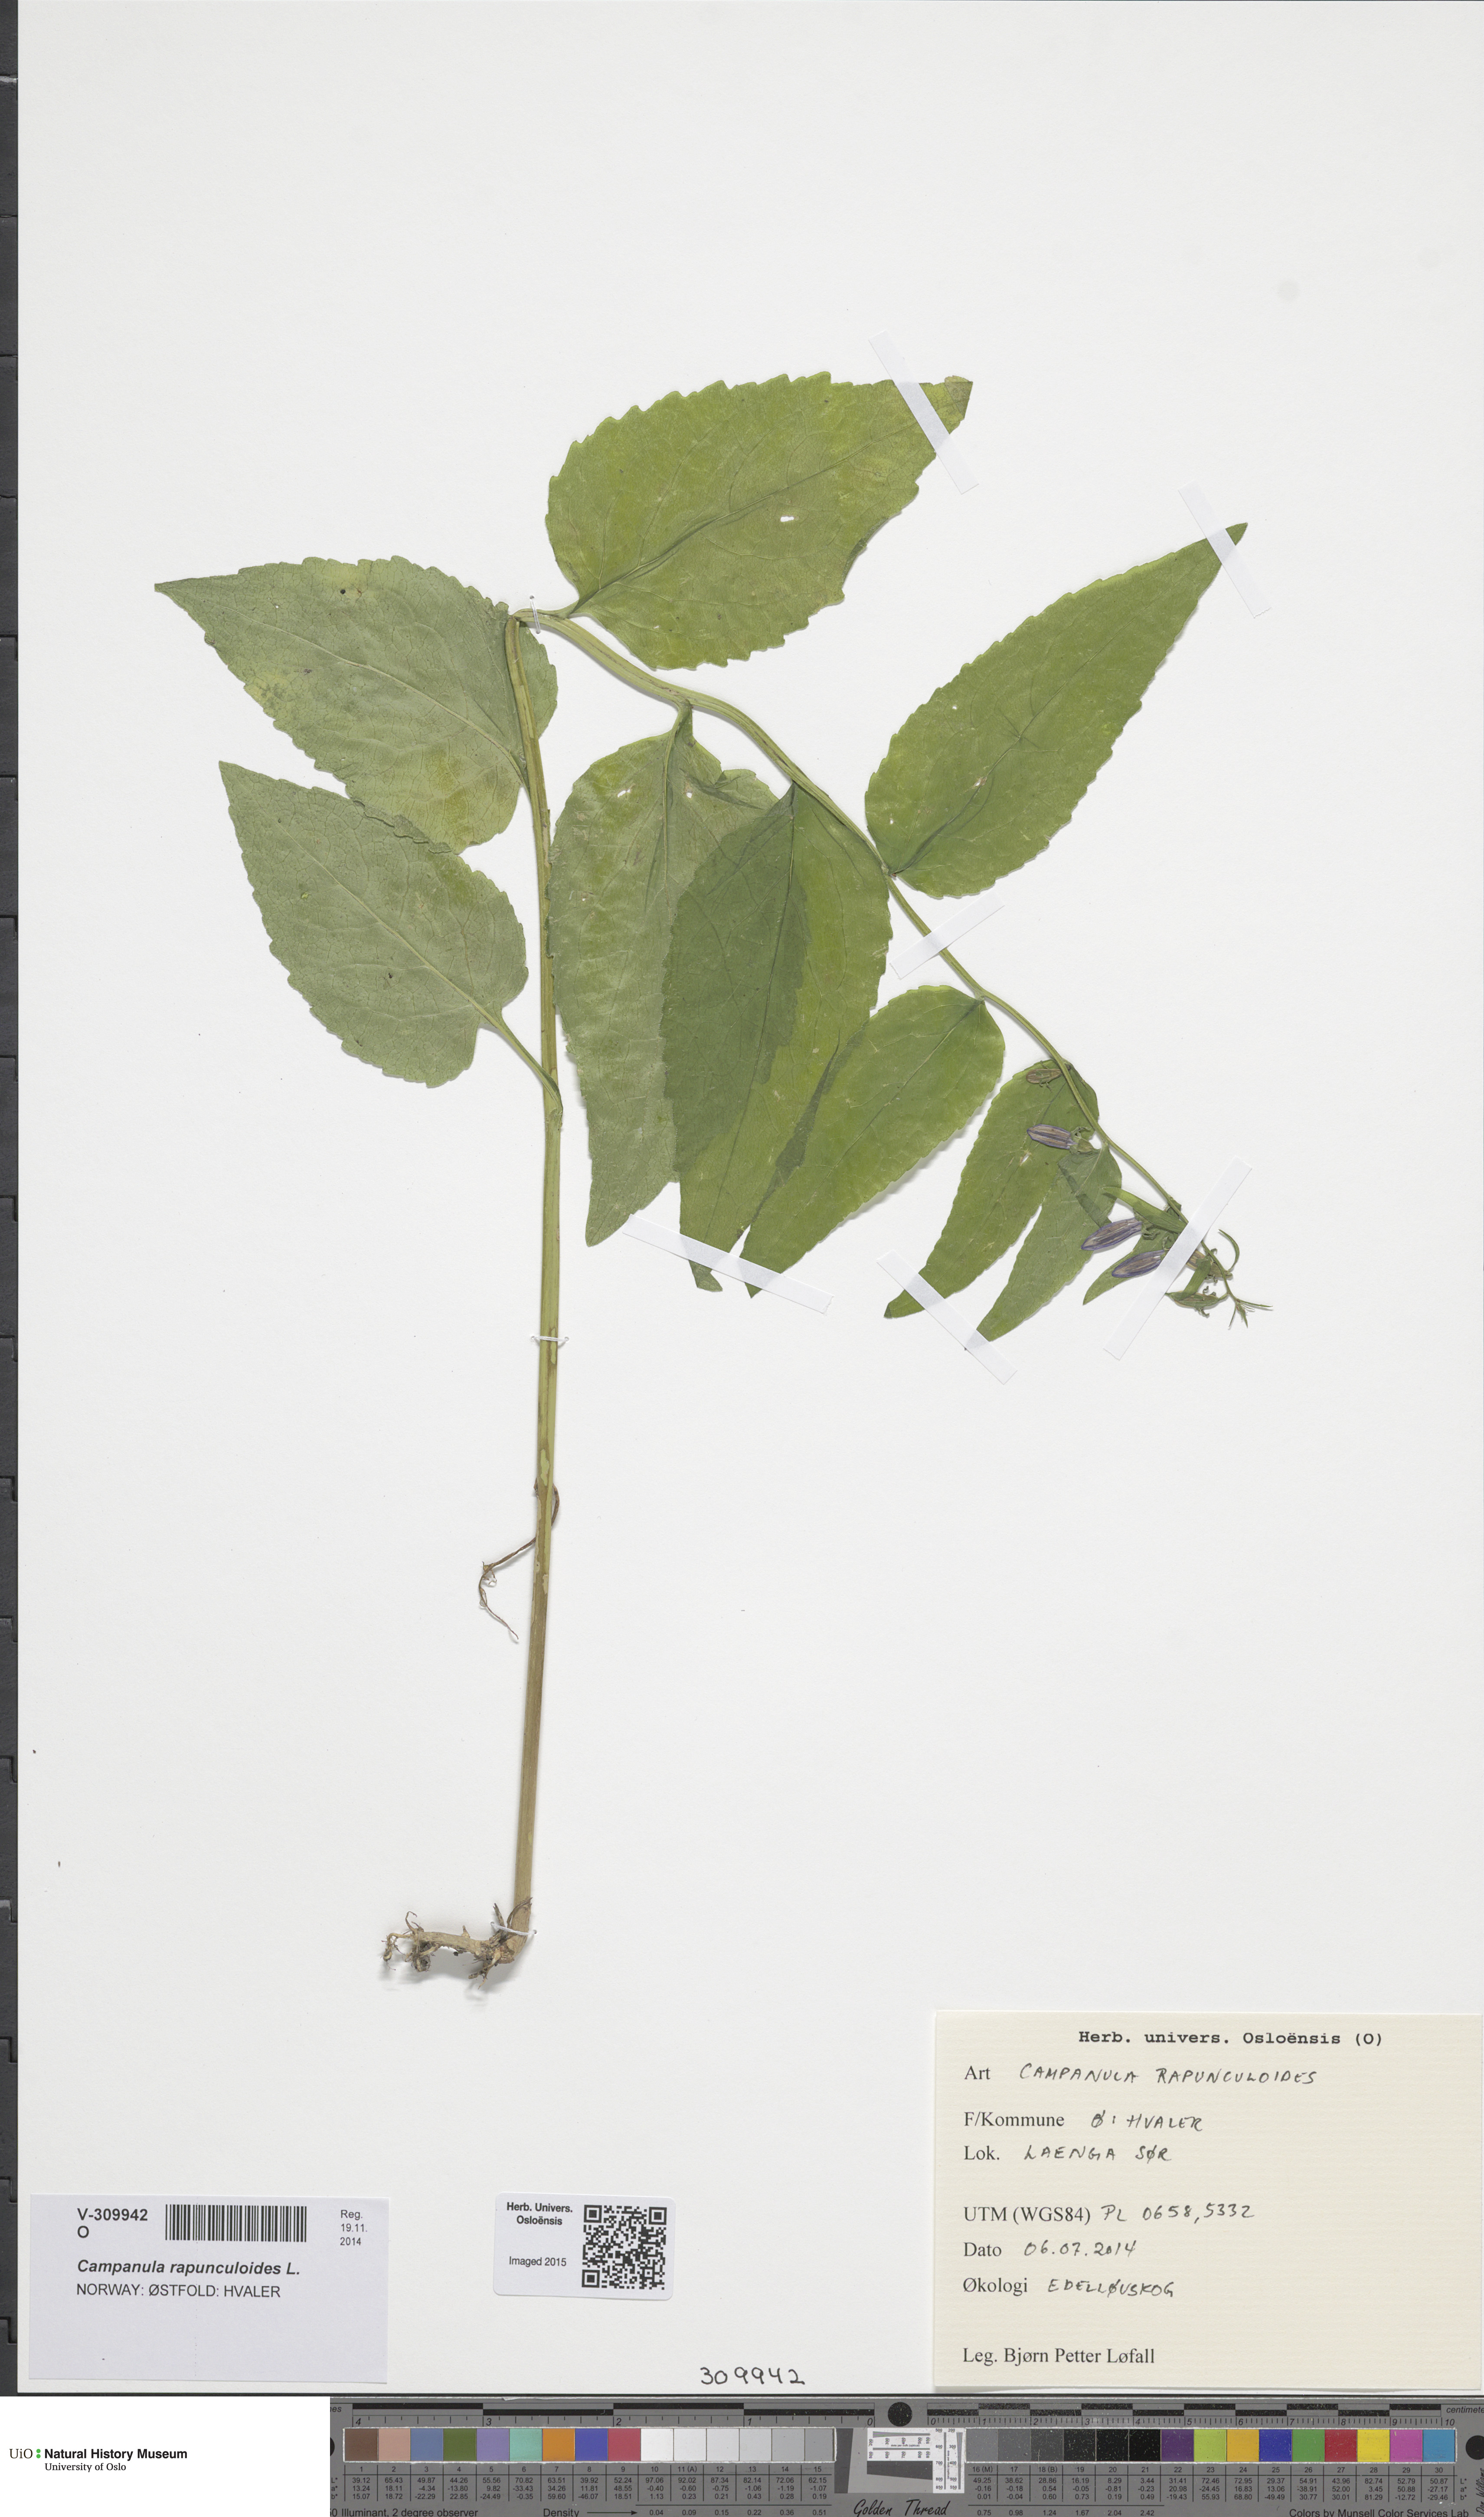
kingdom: Plantae
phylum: Tracheophyta
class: Magnoliopsida
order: Asterales
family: Campanulaceae
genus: Campanula
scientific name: Campanula rapunculoides
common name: Creeping bellflower
